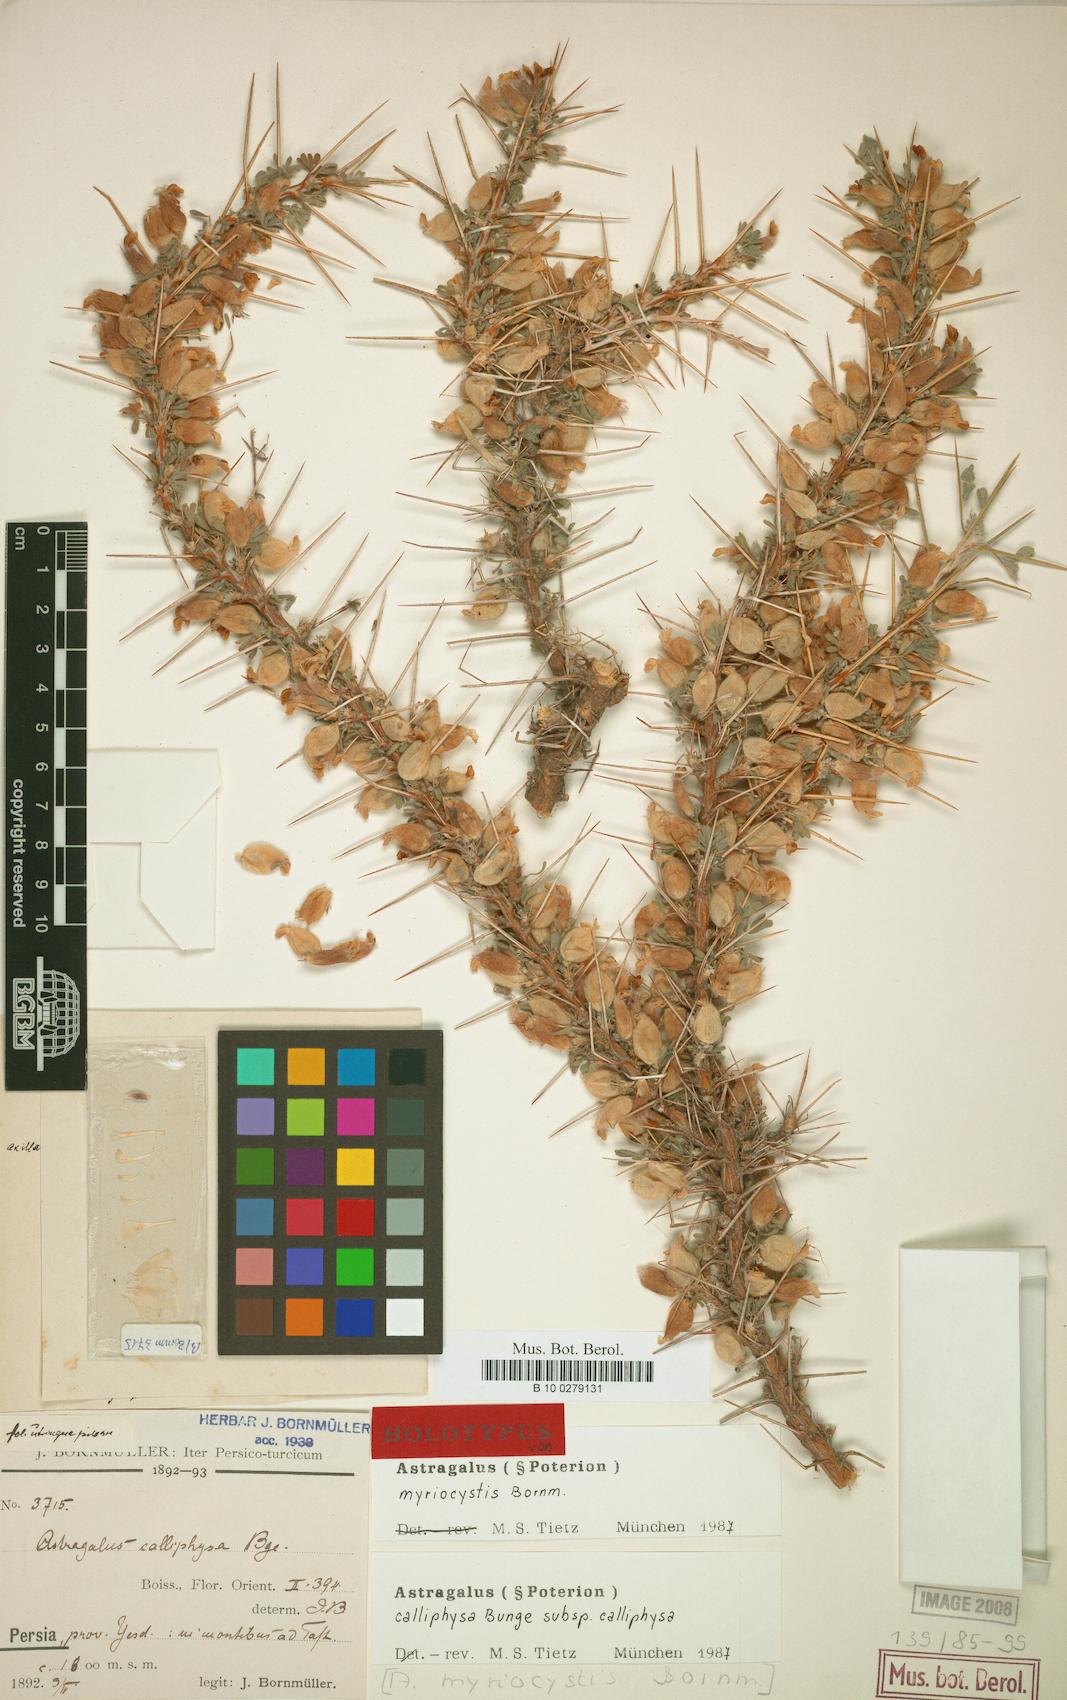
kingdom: Plantae
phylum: Tracheophyta
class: Magnoliopsida
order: Fabales
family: Fabaceae
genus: Astragalus
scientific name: Astragalus calliphysa
